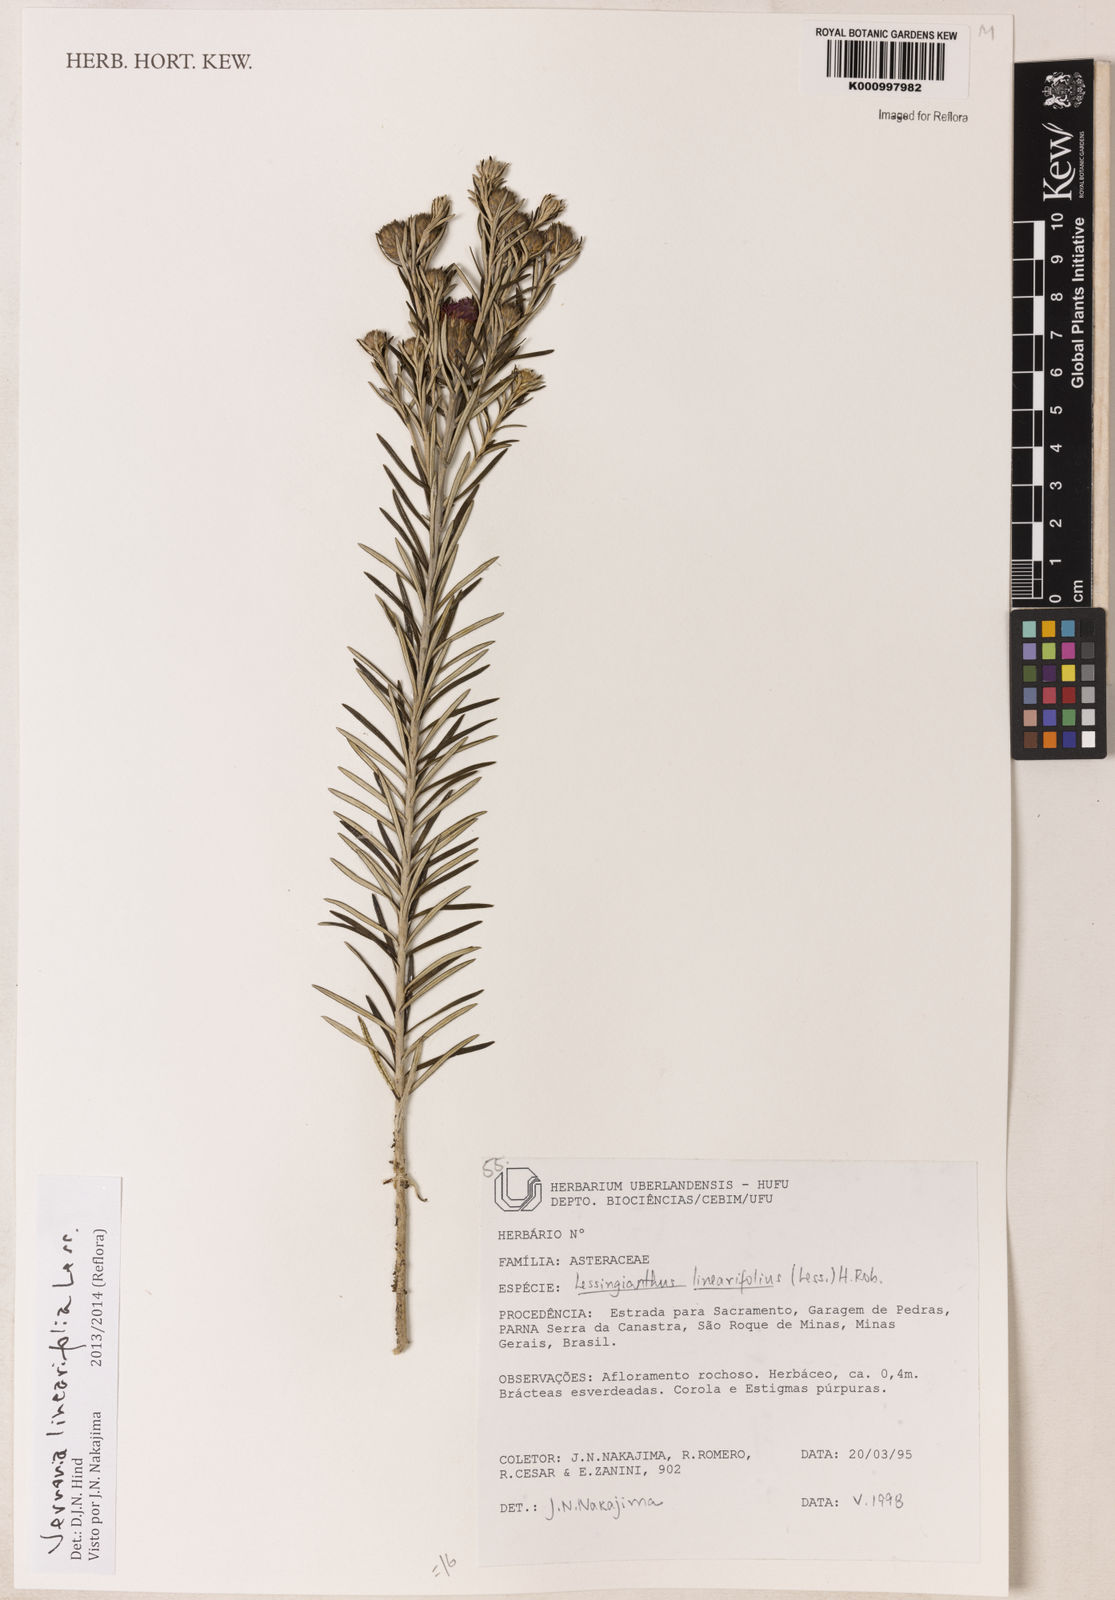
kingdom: Plantae
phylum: Tracheophyta
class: Magnoliopsida
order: Asterales
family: Asteraceae
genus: Lessingianthus
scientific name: Lessingianthus rosmarinifolius
